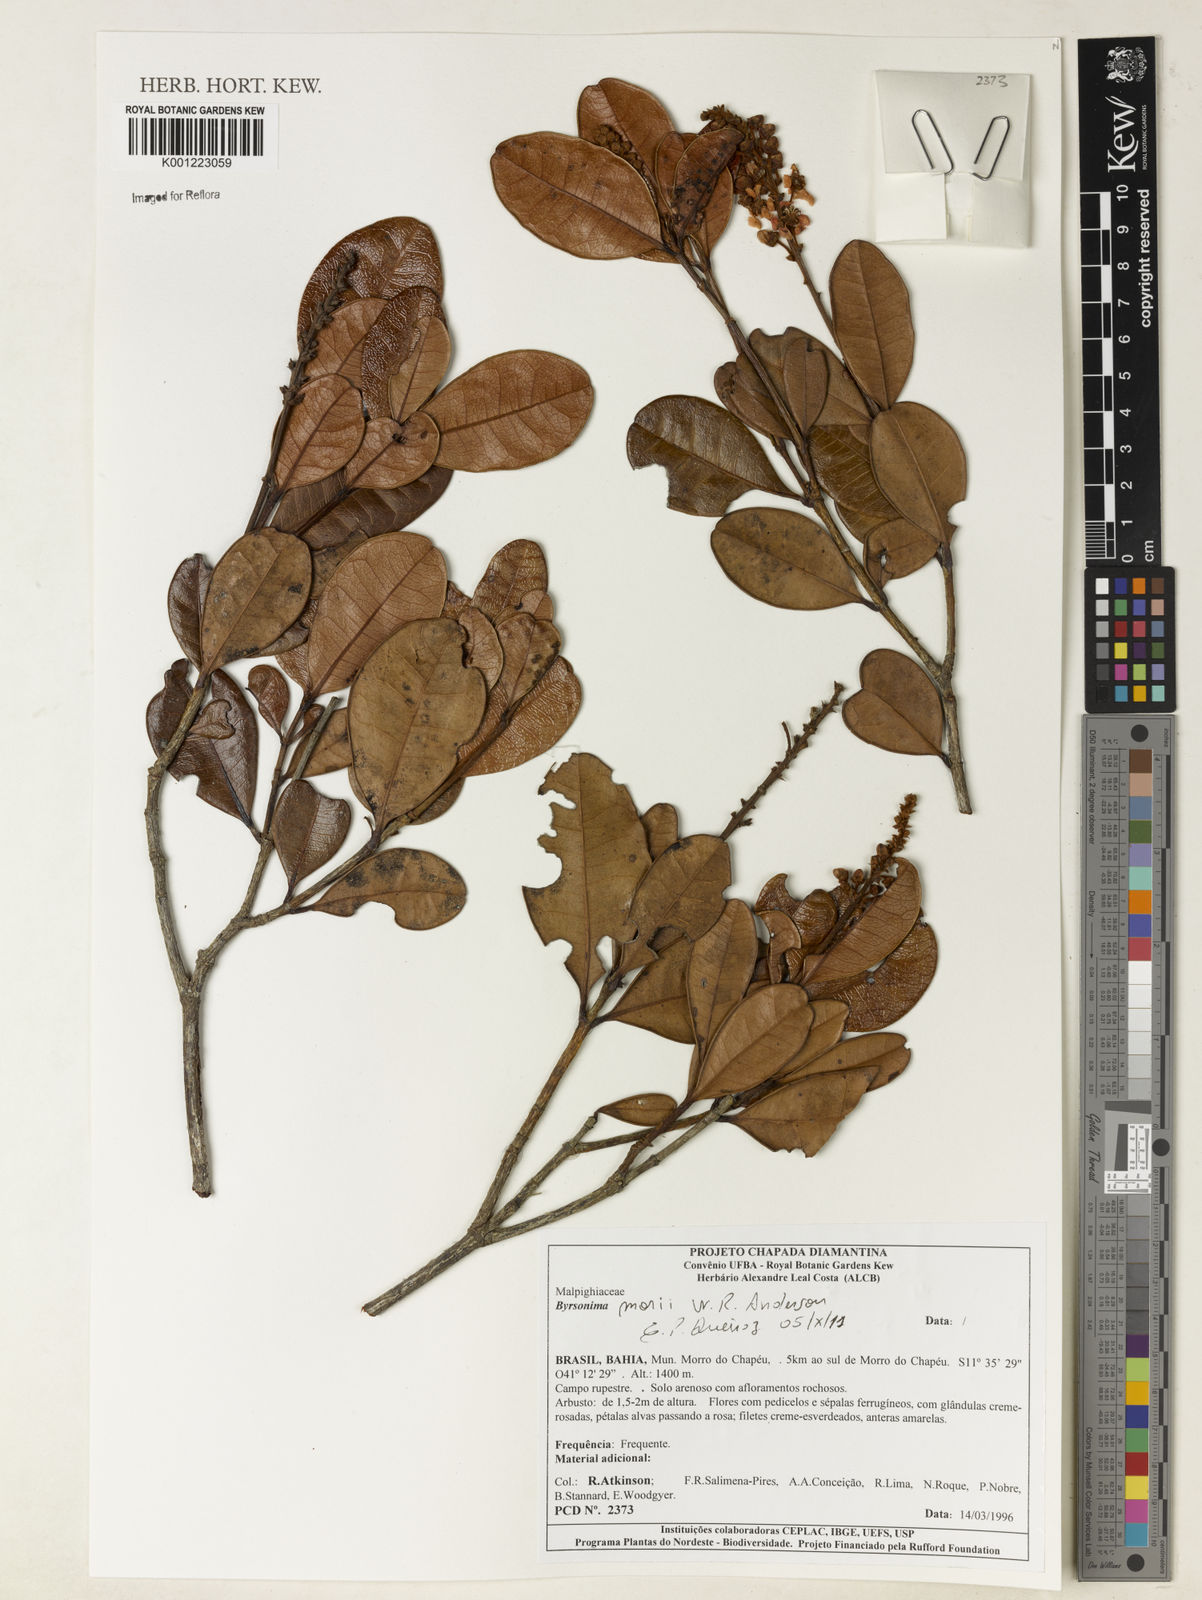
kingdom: Plantae
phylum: Tracheophyta
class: Magnoliopsida
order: Malpighiales
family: Malpighiaceae
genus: Byrsonima
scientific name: Byrsonima morii
